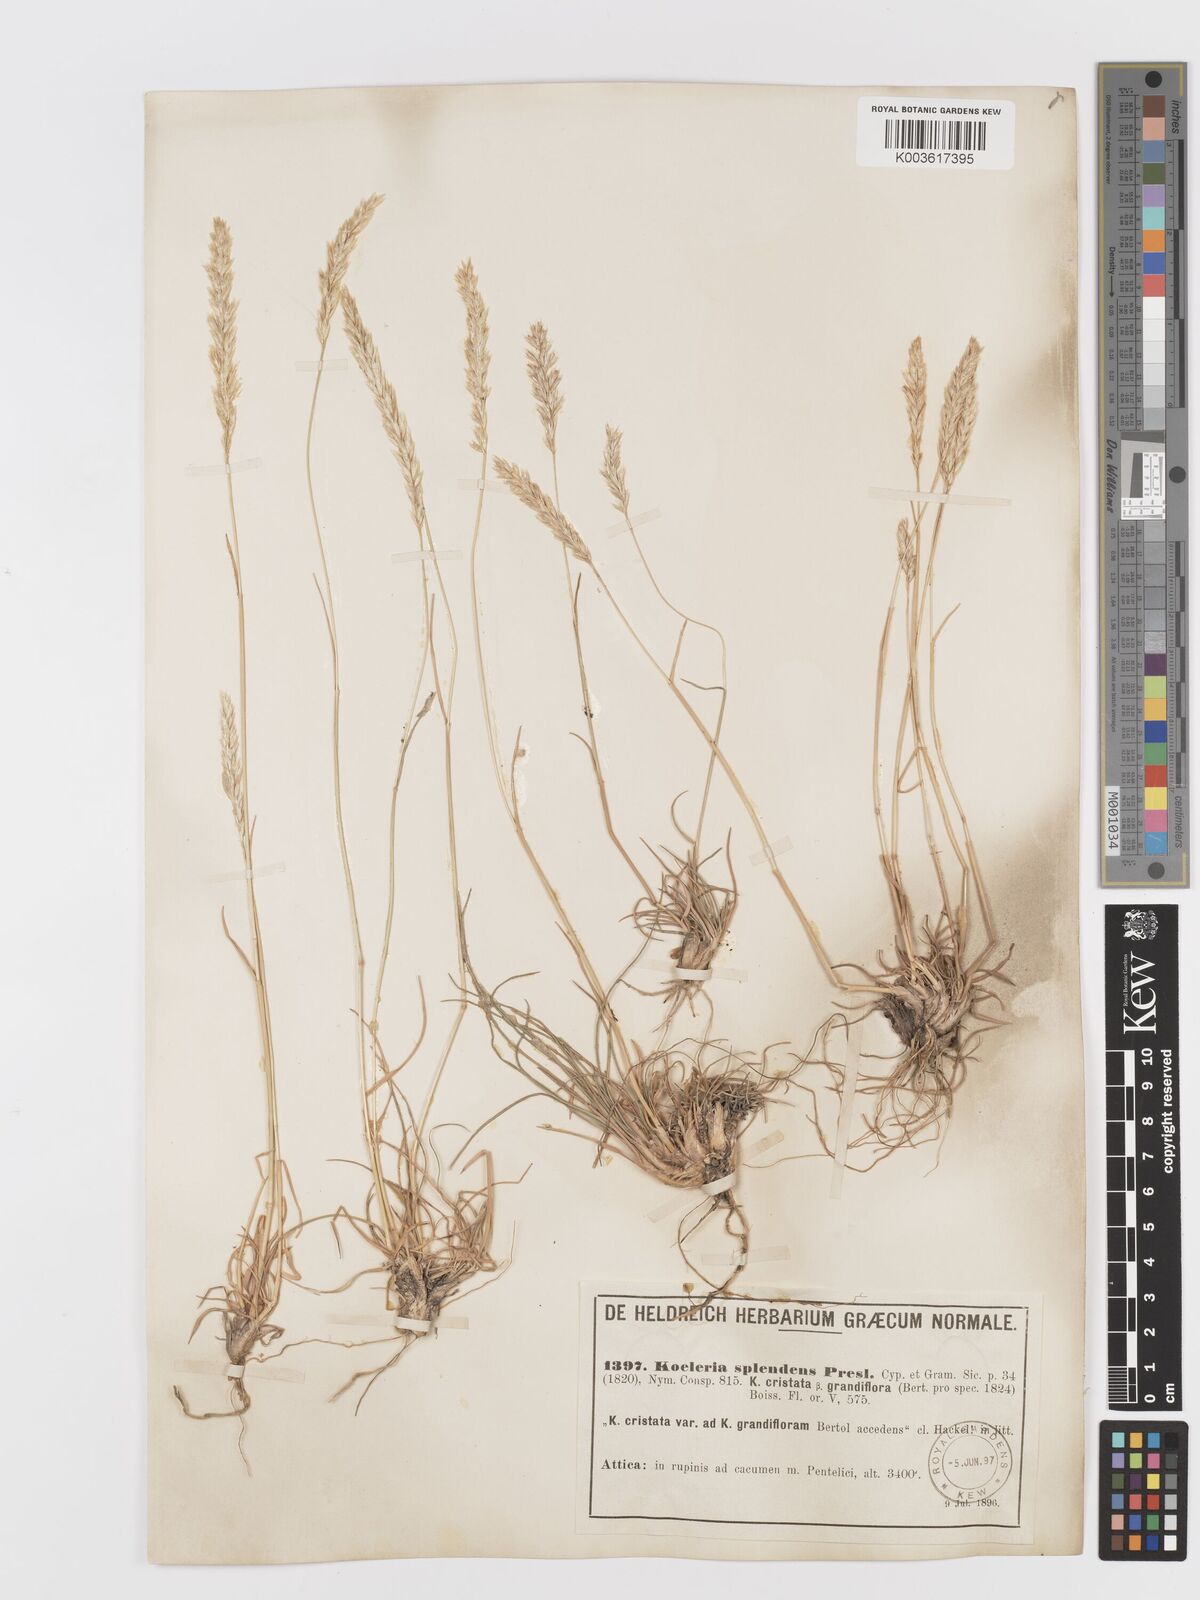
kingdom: Plantae
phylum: Tracheophyta
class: Liliopsida
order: Poales
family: Poaceae
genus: Koeleria
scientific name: Koeleria splendens
